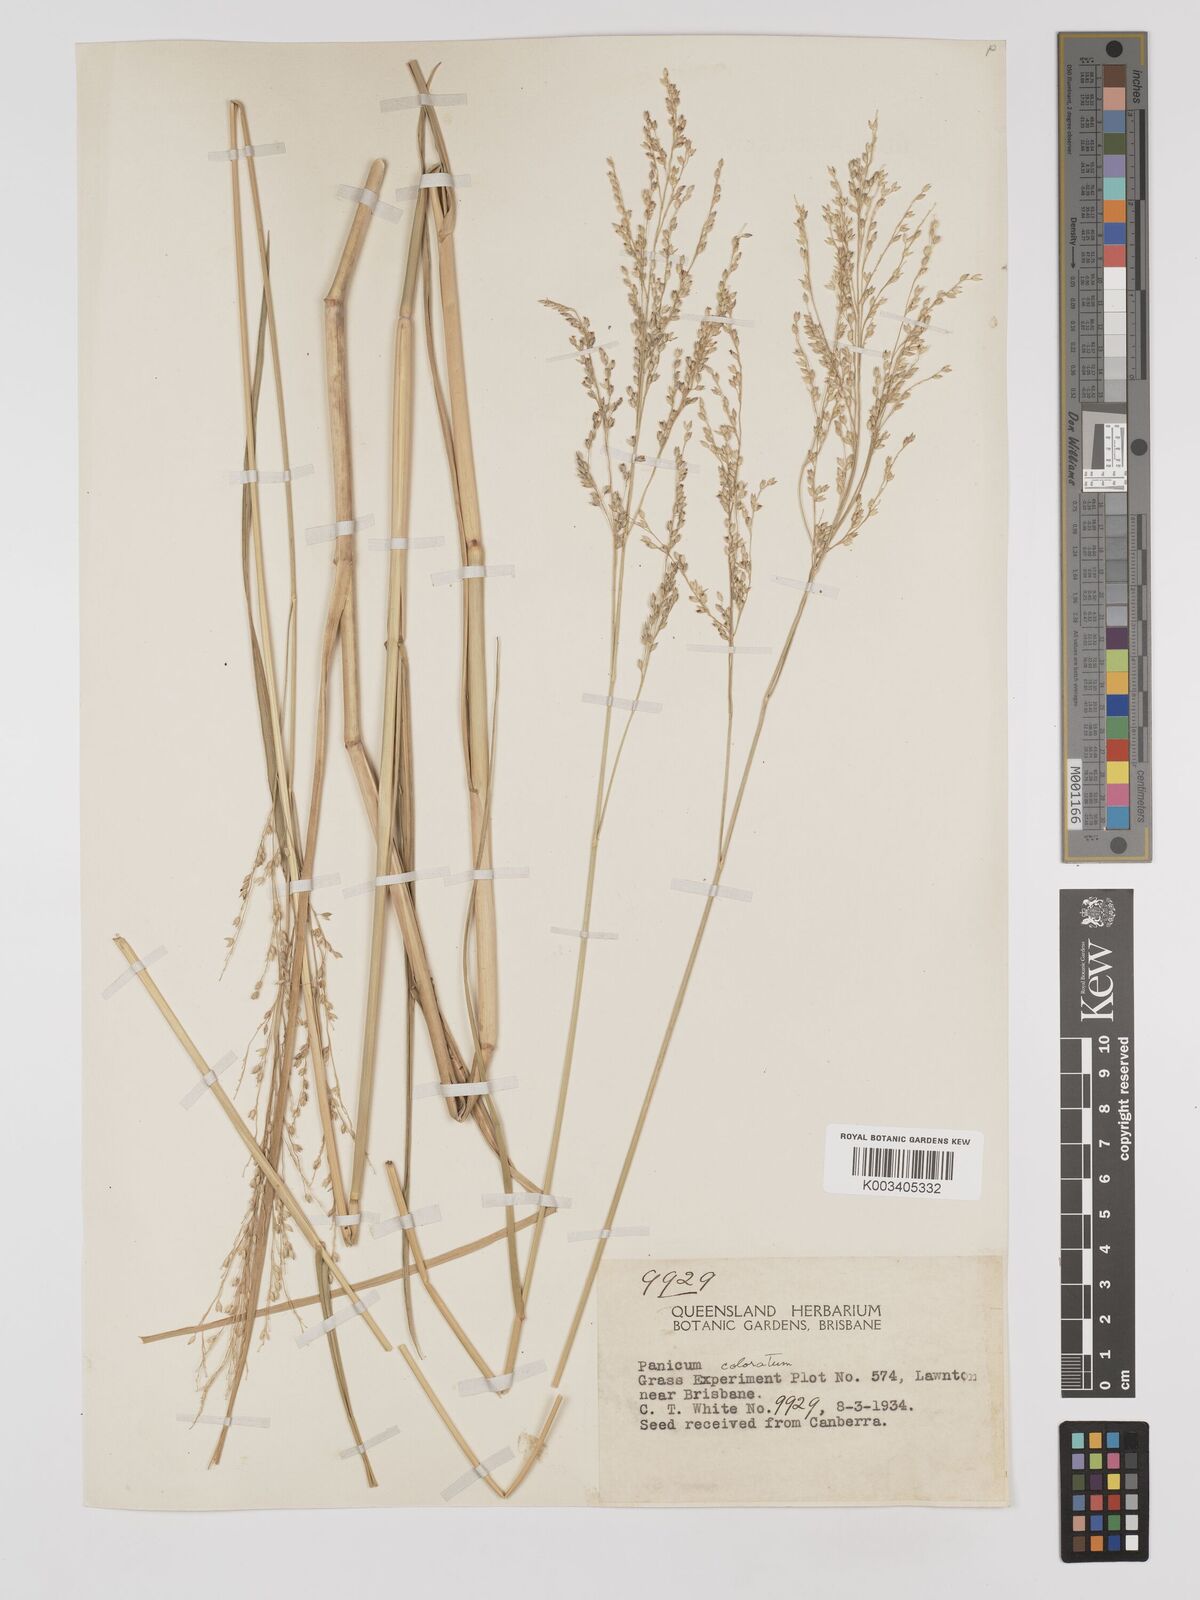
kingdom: Plantae
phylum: Tracheophyta
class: Liliopsida
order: Poales
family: Poaceae
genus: Panicum
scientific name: Panicum coloratum
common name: Kleingrass
